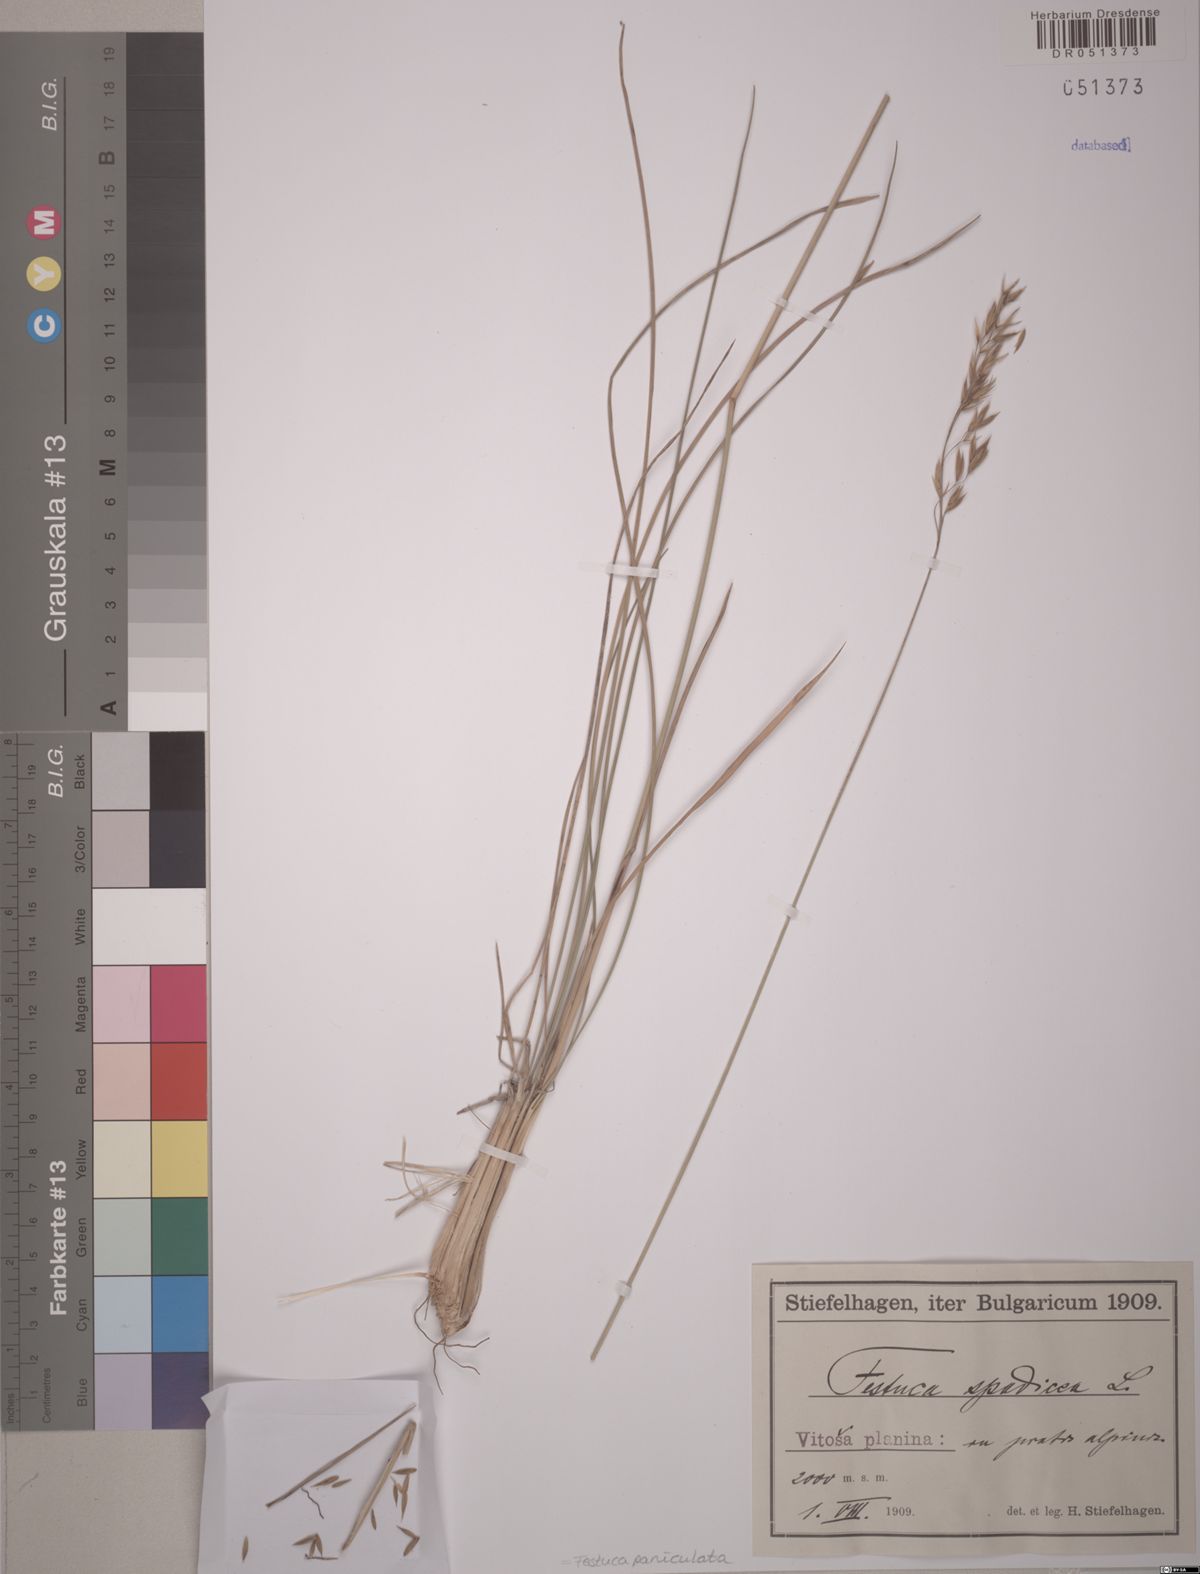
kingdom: Plantae
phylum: Tracheophyta
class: Liliopsida
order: Poales
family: Poaceae
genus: Patzkea
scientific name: Patzkea paniculata
